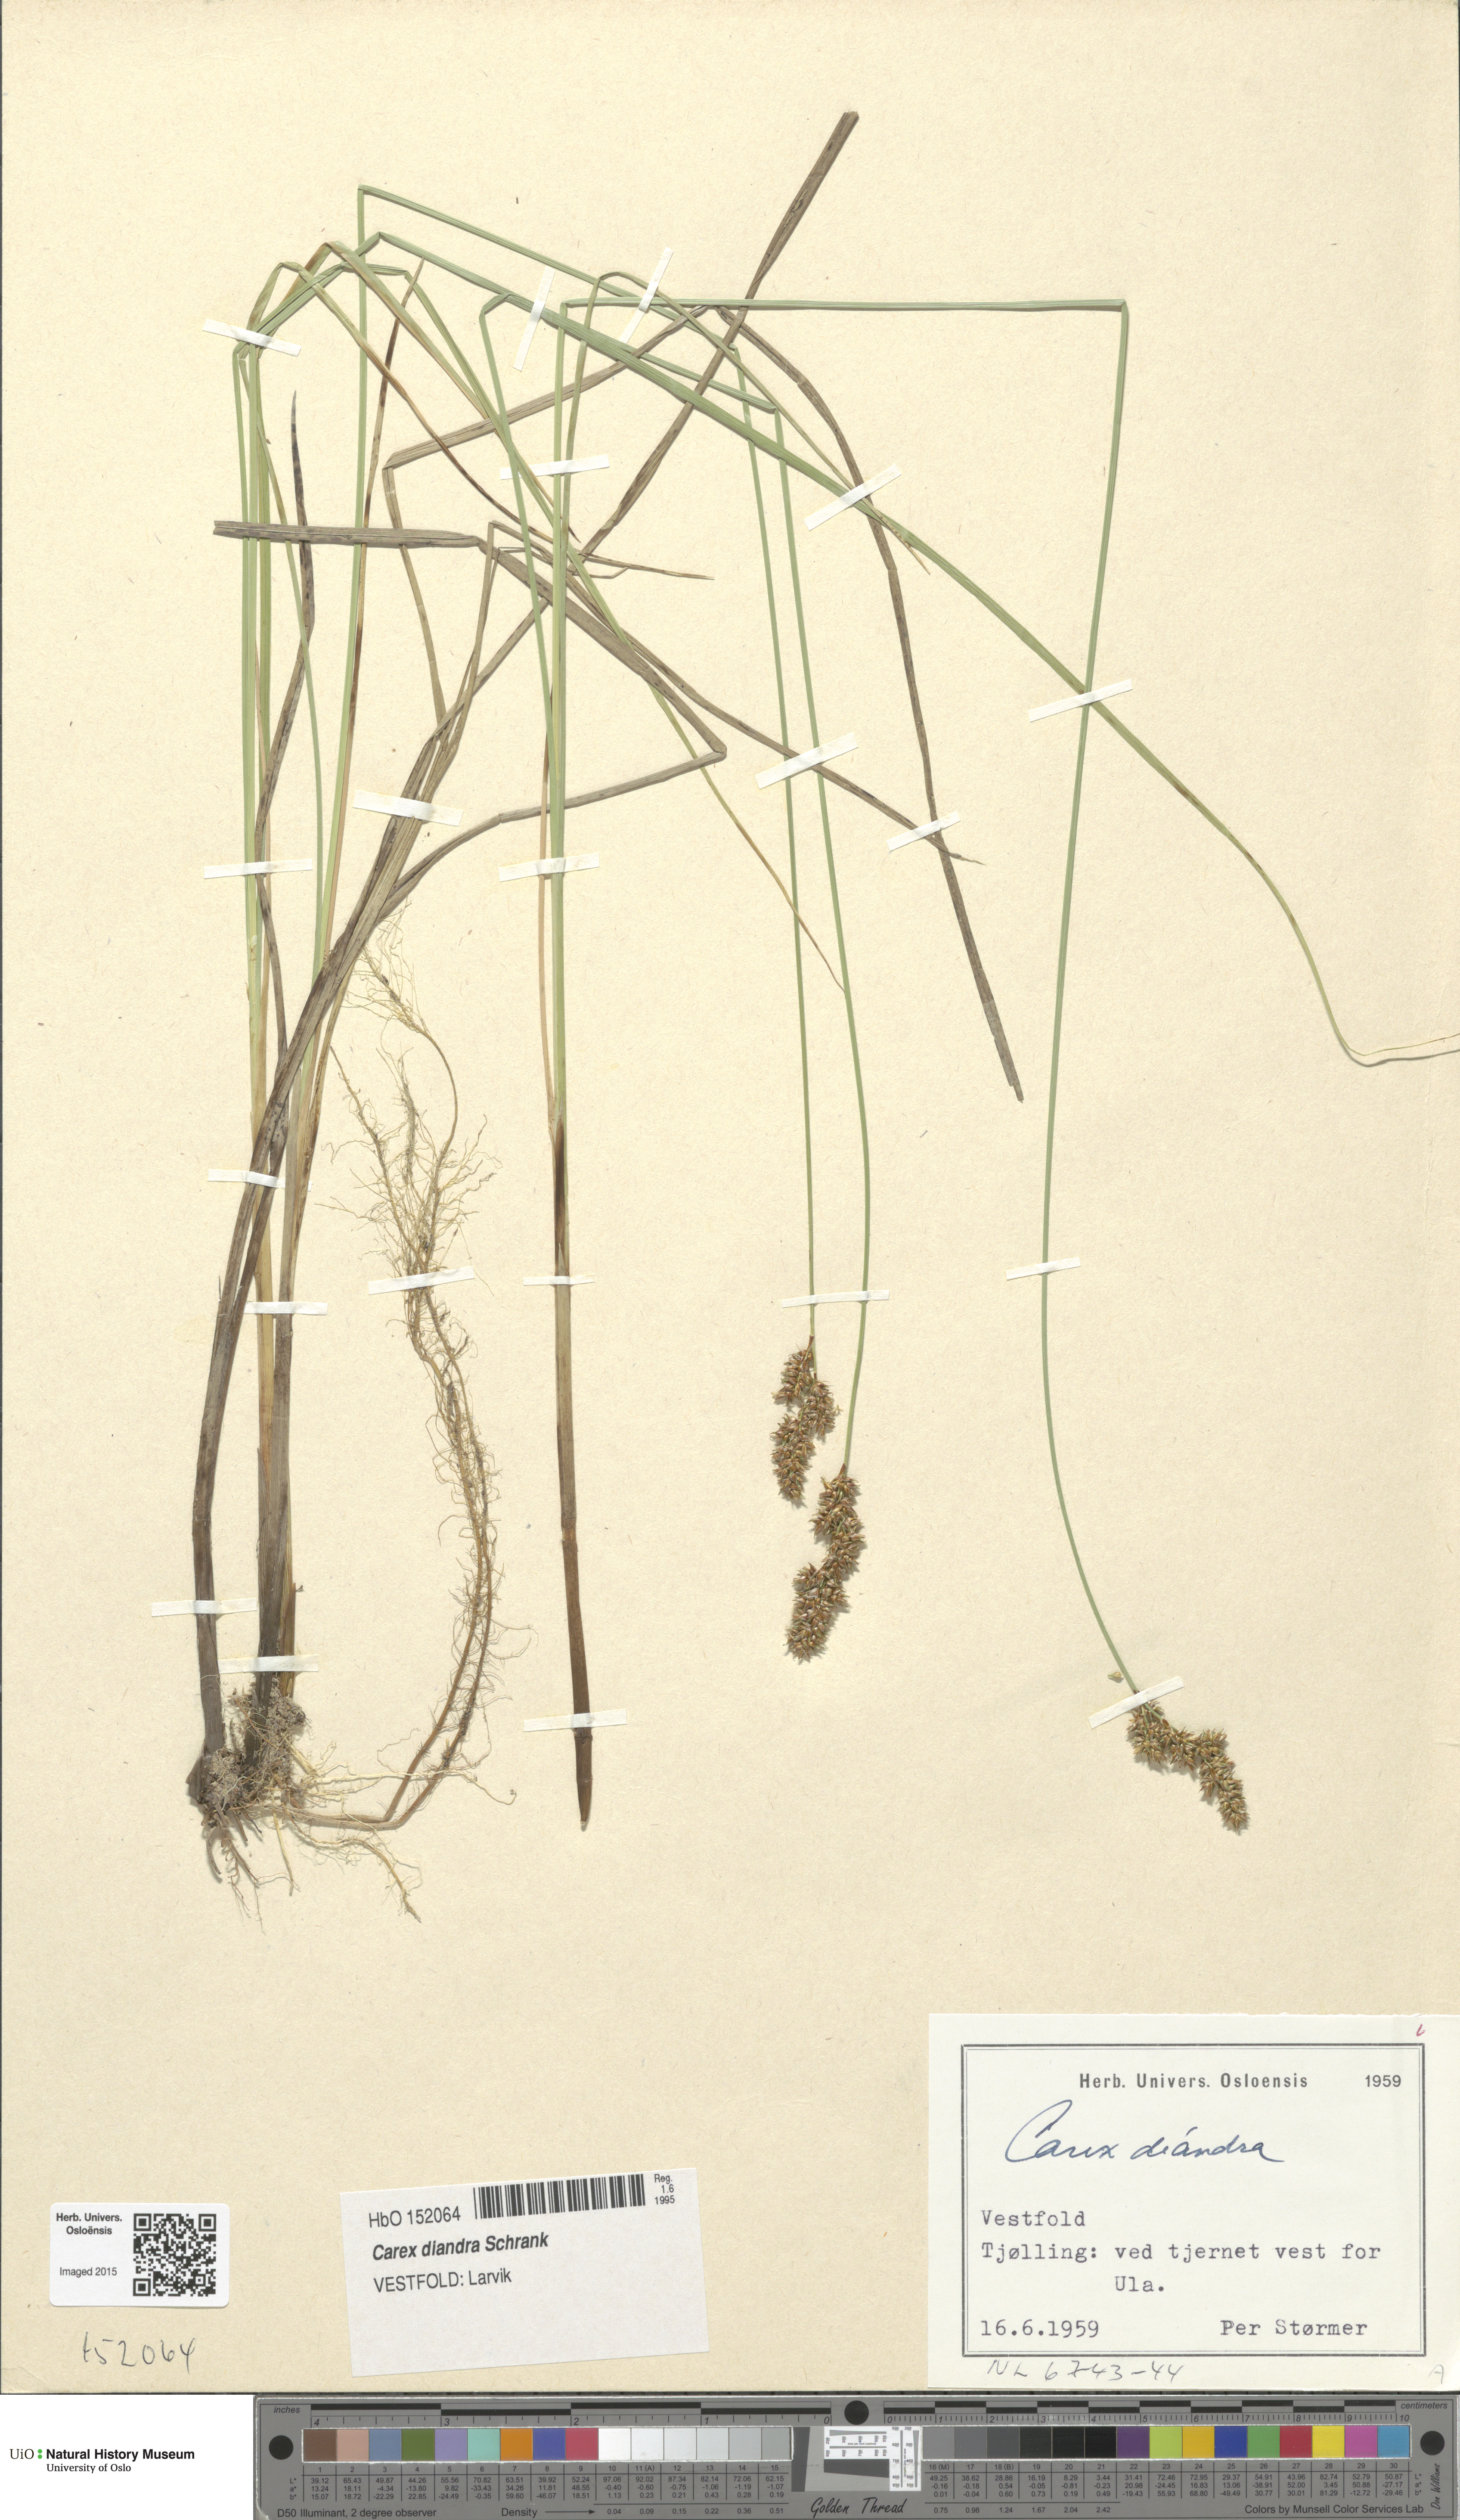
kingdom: Plantae
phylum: Tracheophyta
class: Liliopsida
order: Poales
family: Cyperaceae
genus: Carex
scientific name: Carex diandra
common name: Lesser tussock-sedge
